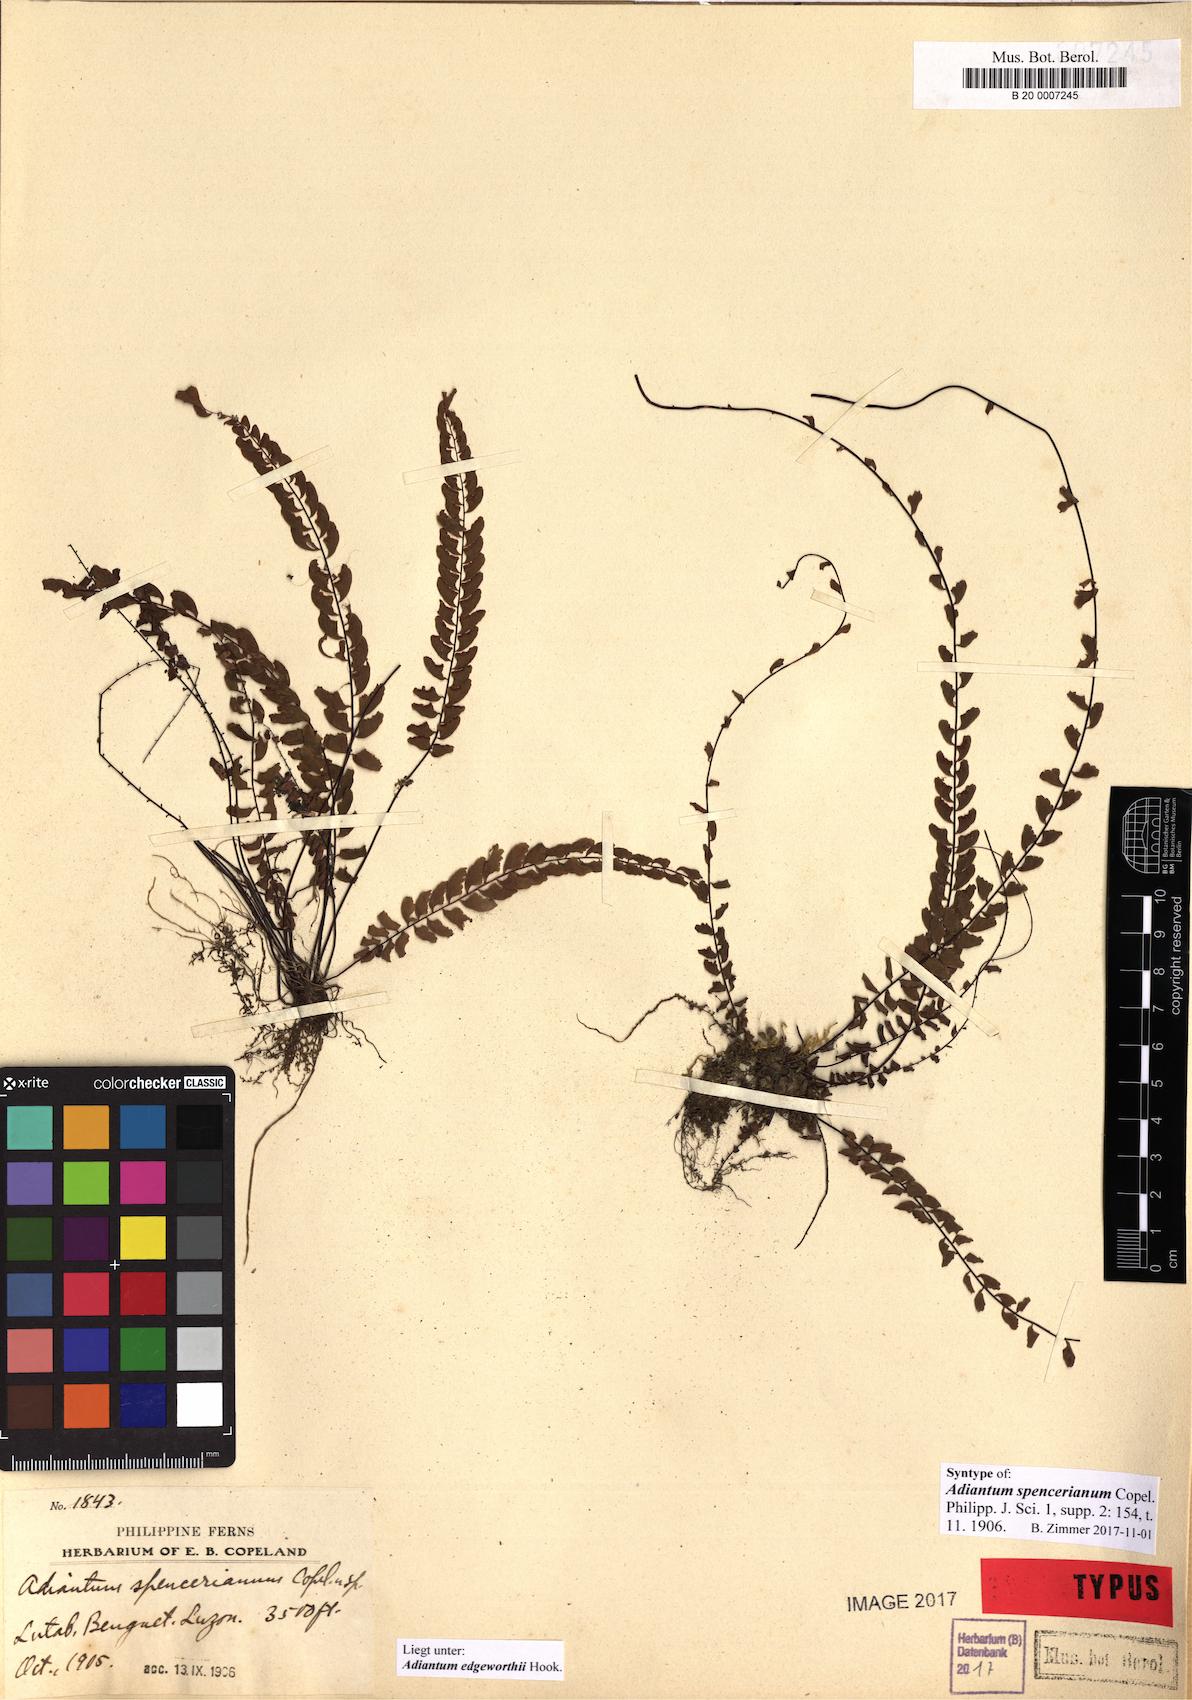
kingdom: Plantae
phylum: Tracheophyta
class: Polypodiopsida
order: Polypodiales
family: Pteridaceae
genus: Adiantum
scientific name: Adiantum edgeworthii
